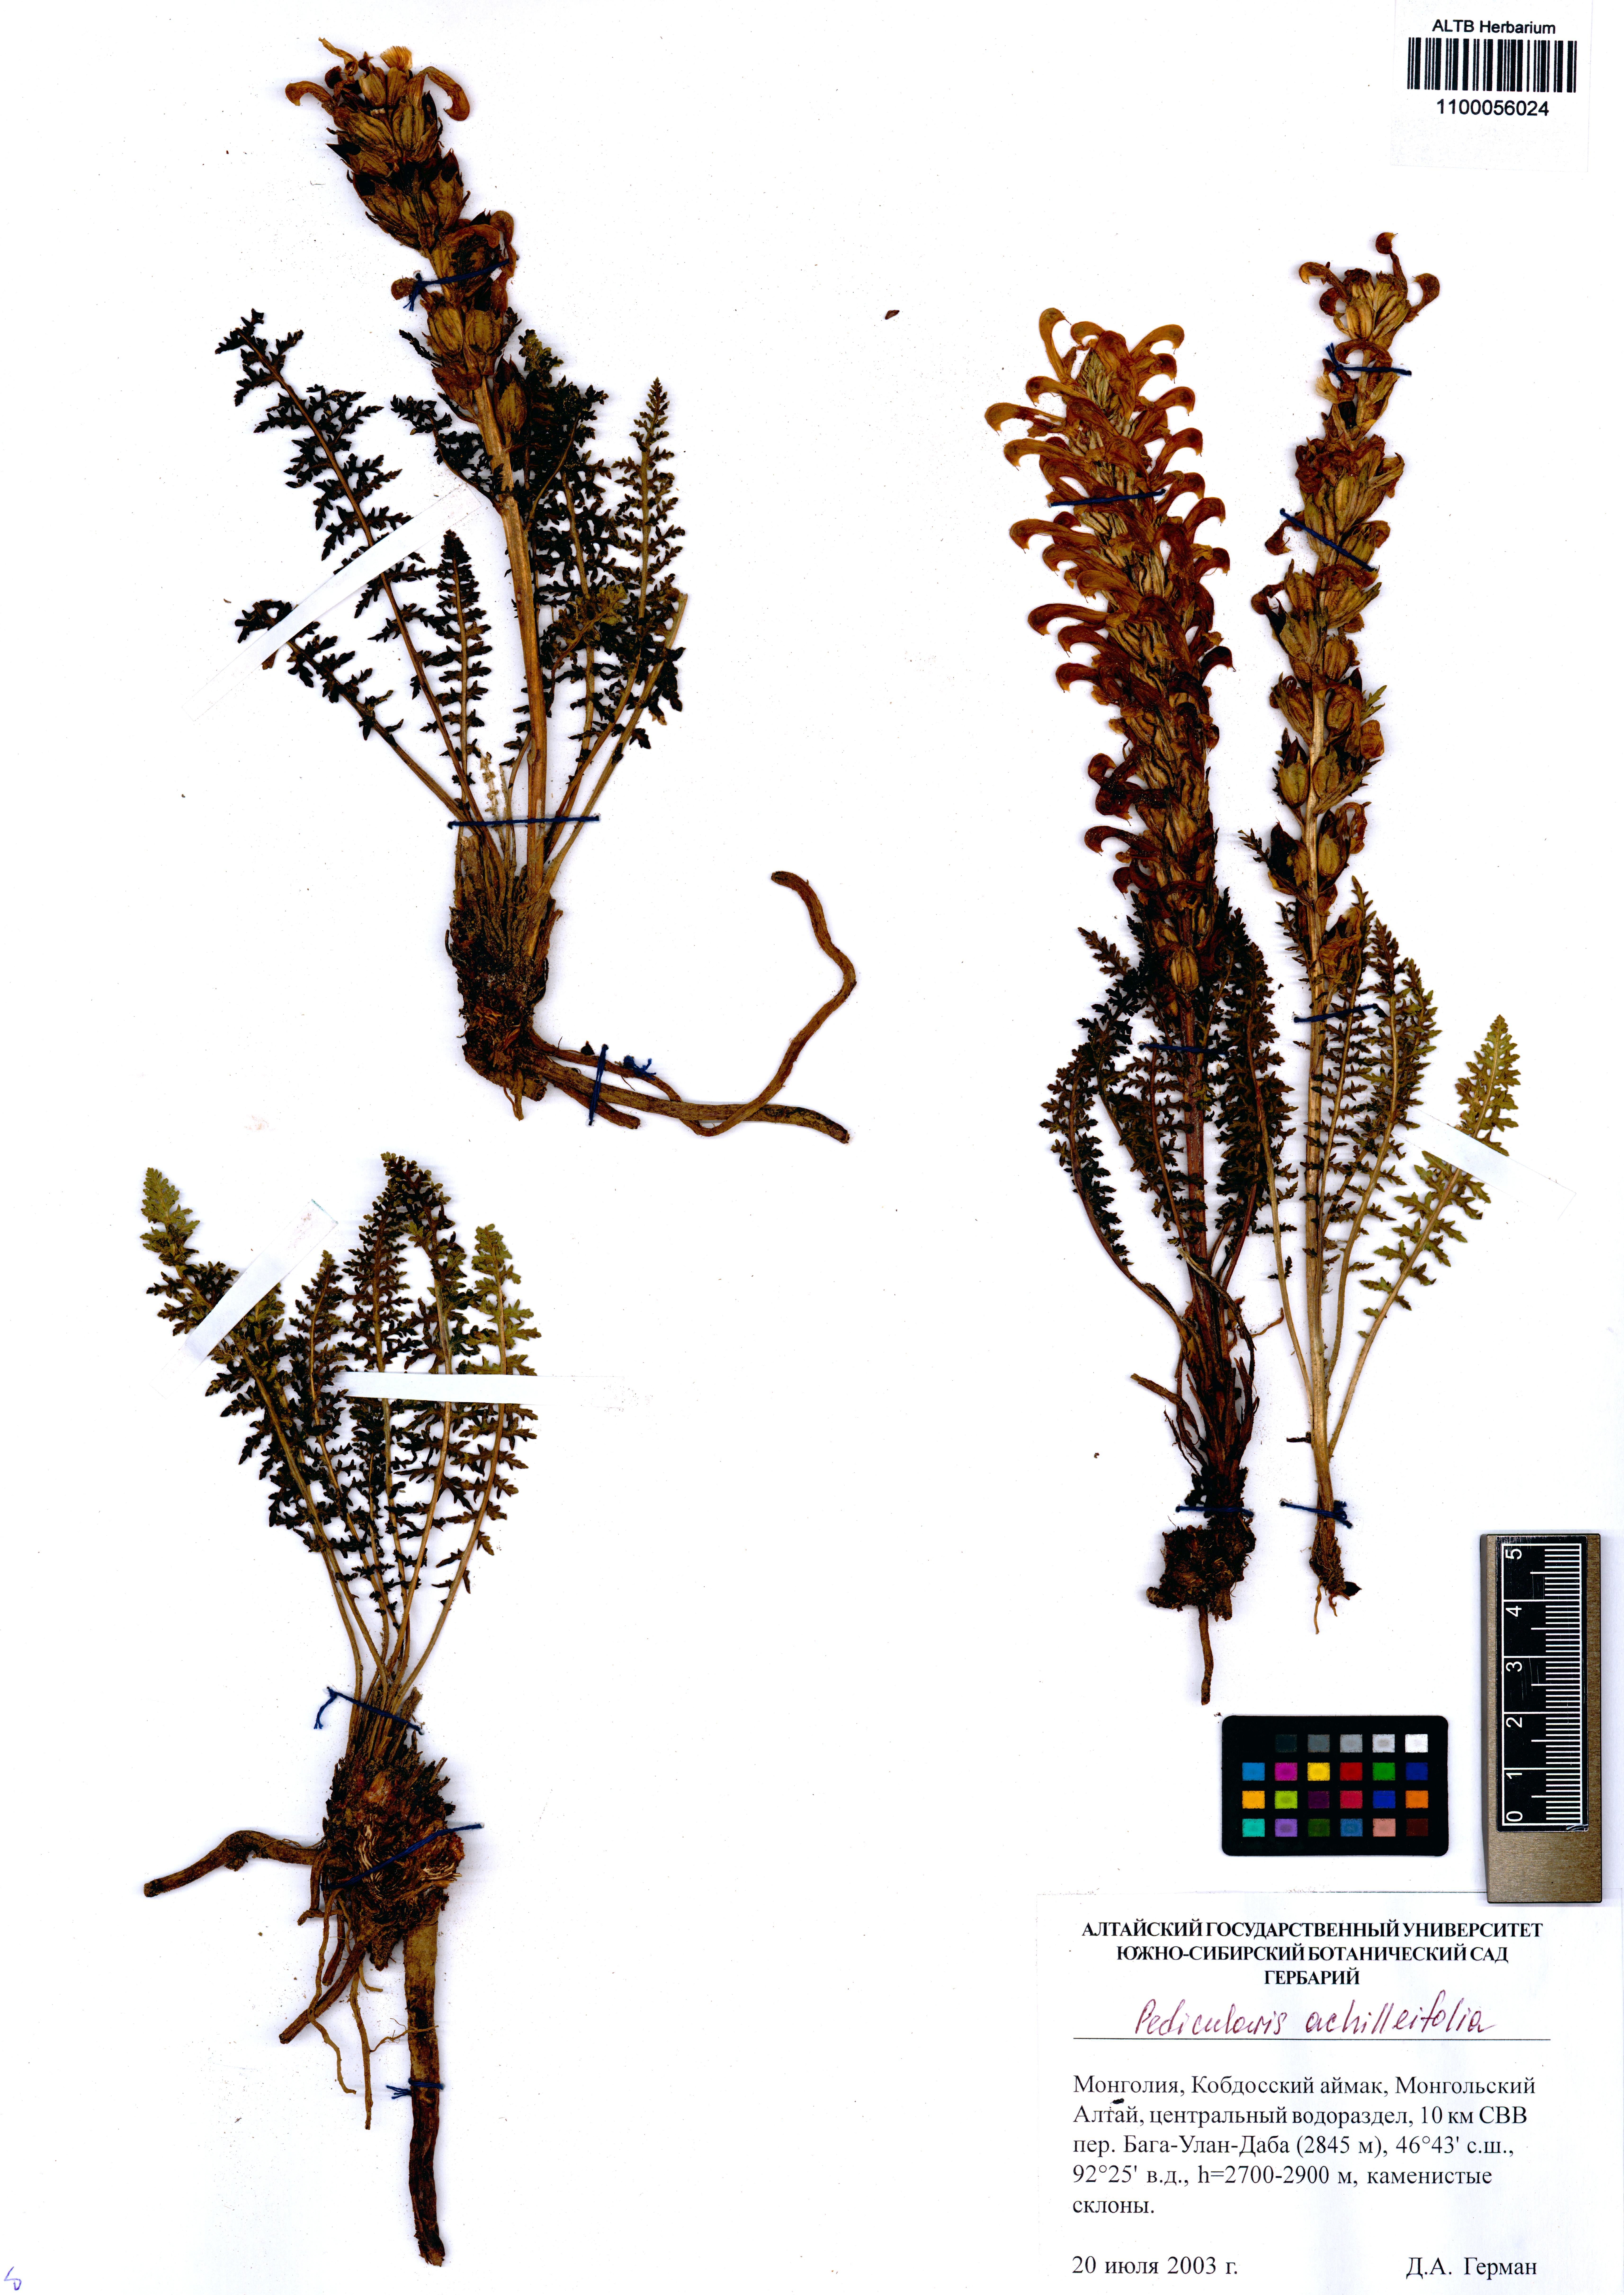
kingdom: Plantae
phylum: Tracheophyta
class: Magnoliopsida
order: Lamiales
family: Orobanchaceae
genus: Pedicularis
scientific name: Pedicularis achilleifolia
